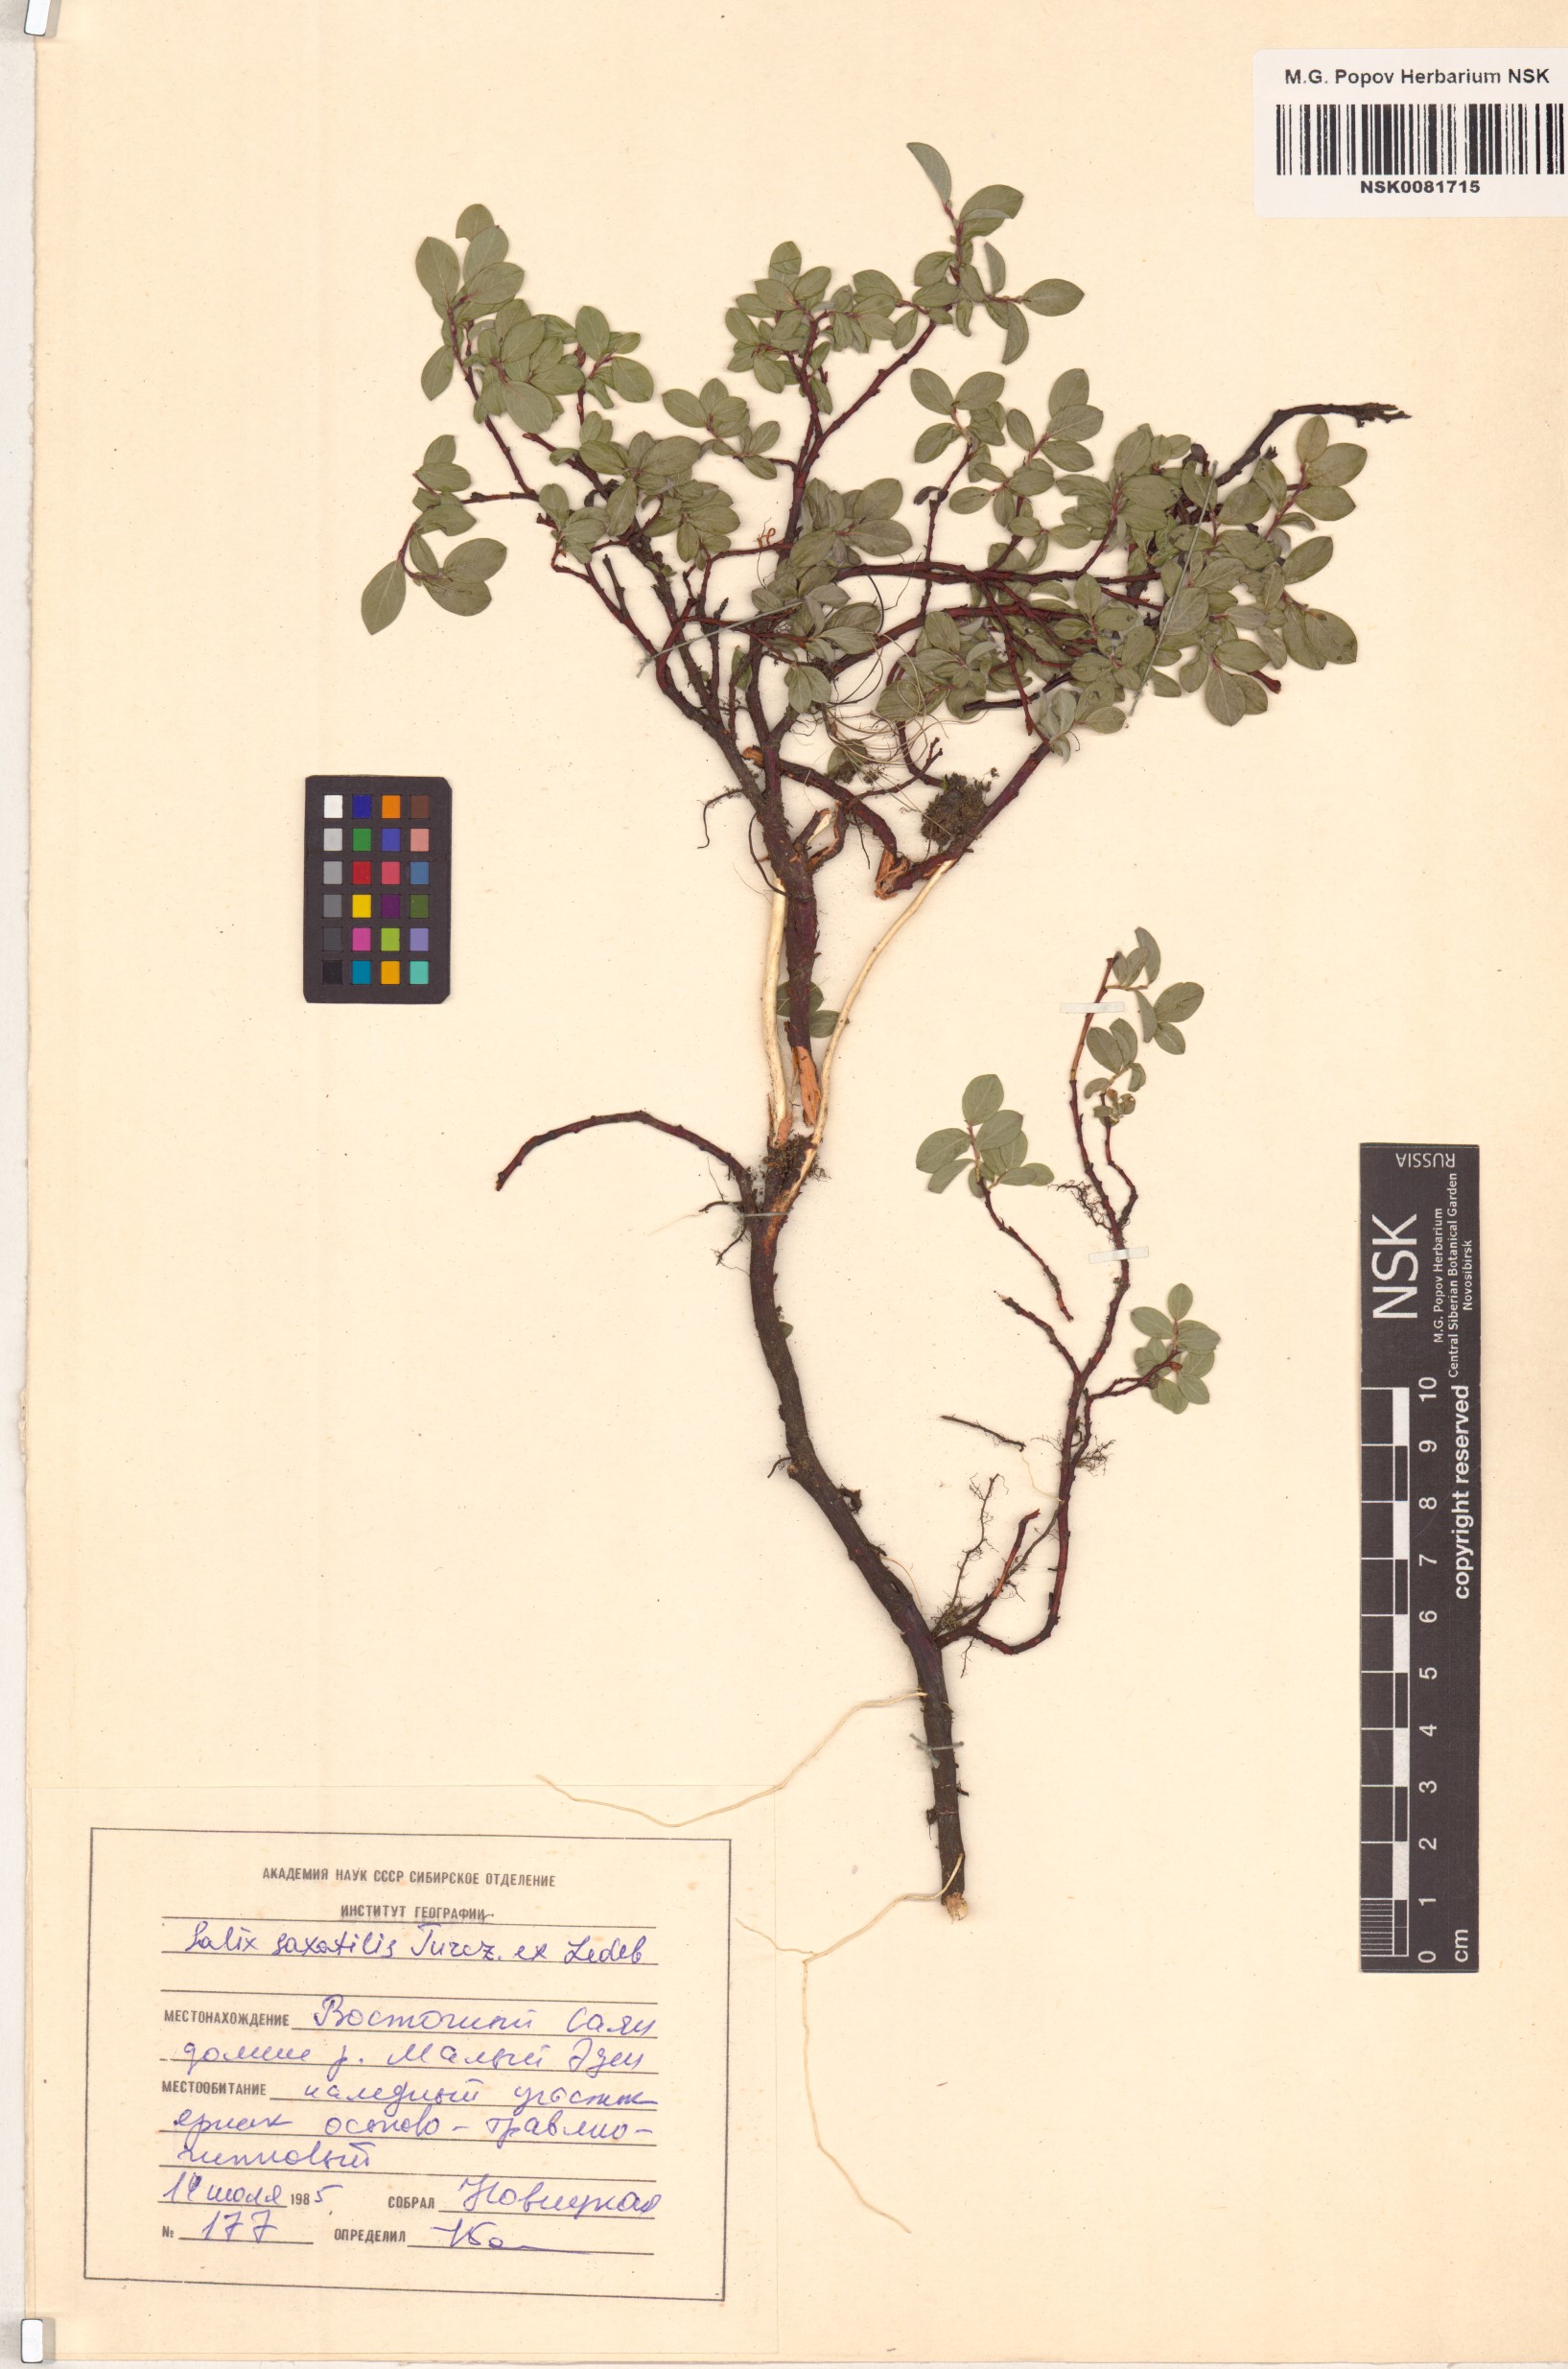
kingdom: Plantae
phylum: Tracheophyta
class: Magnoliopsida
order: Malpighiales
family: Salicaceae
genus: Salix
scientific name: Salix saxatilis
